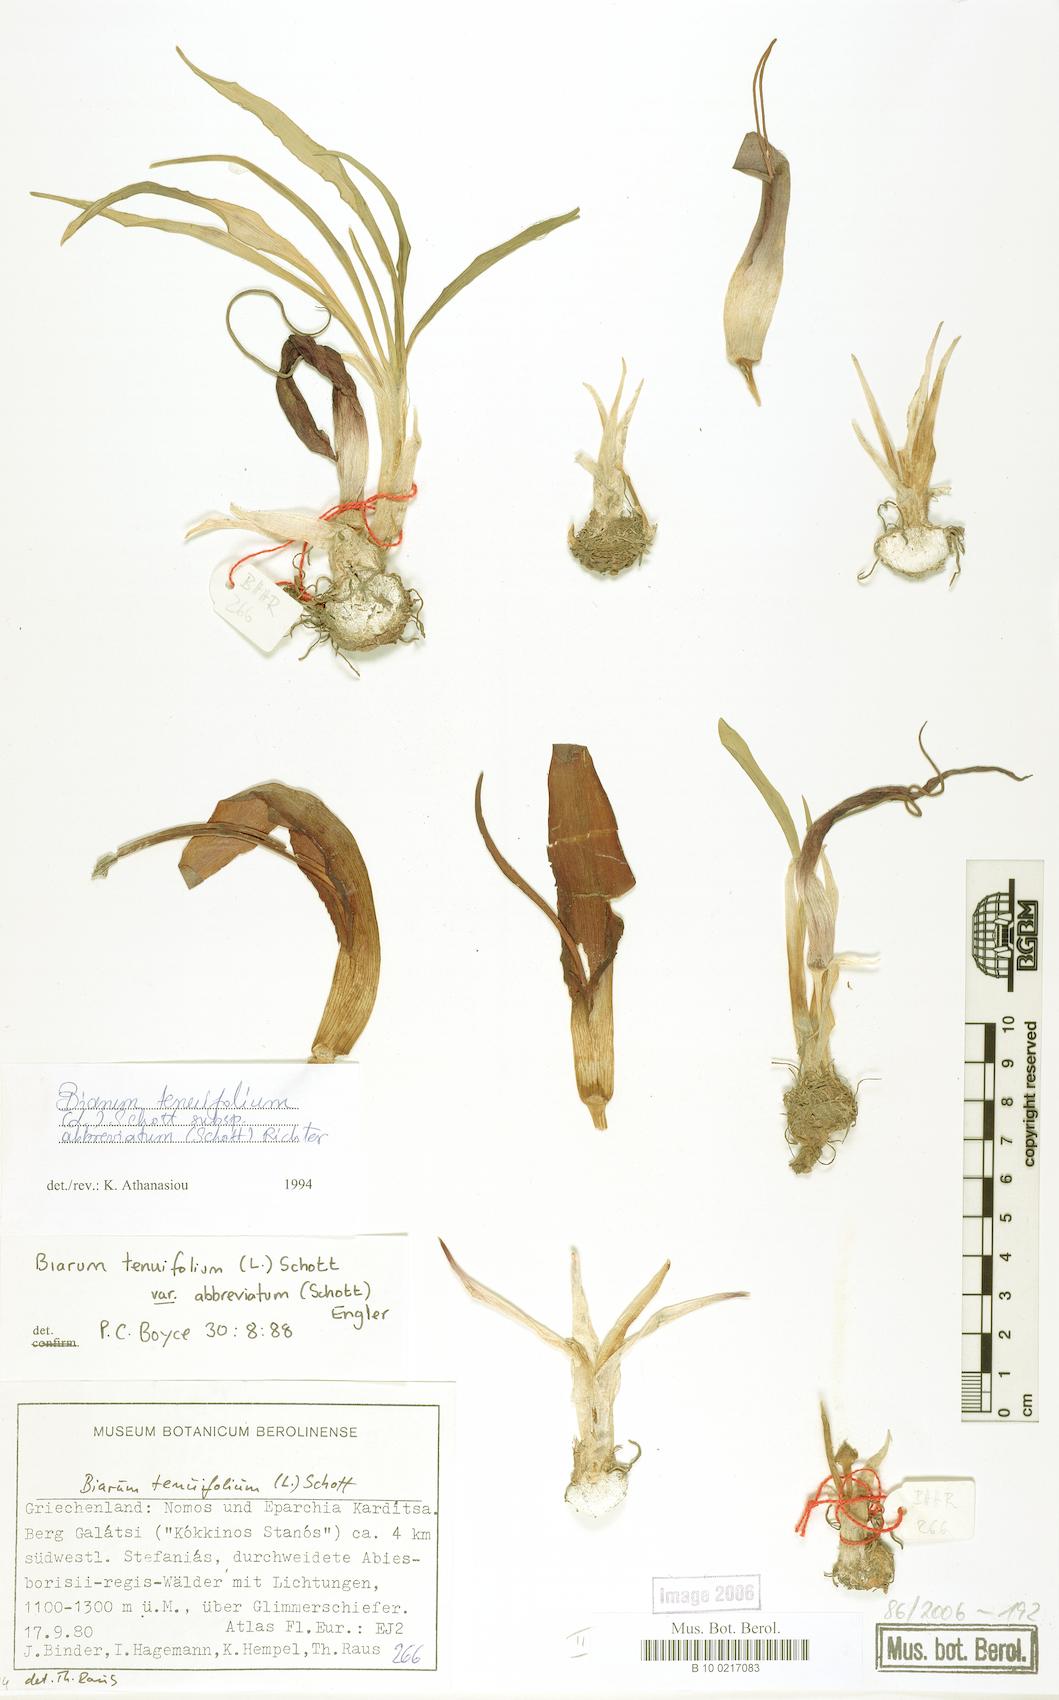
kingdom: Plantae
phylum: Tracheophyta
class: Liliopsida
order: Alismatales
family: Araceae
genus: Biarum
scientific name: Biarum tenuifolium
